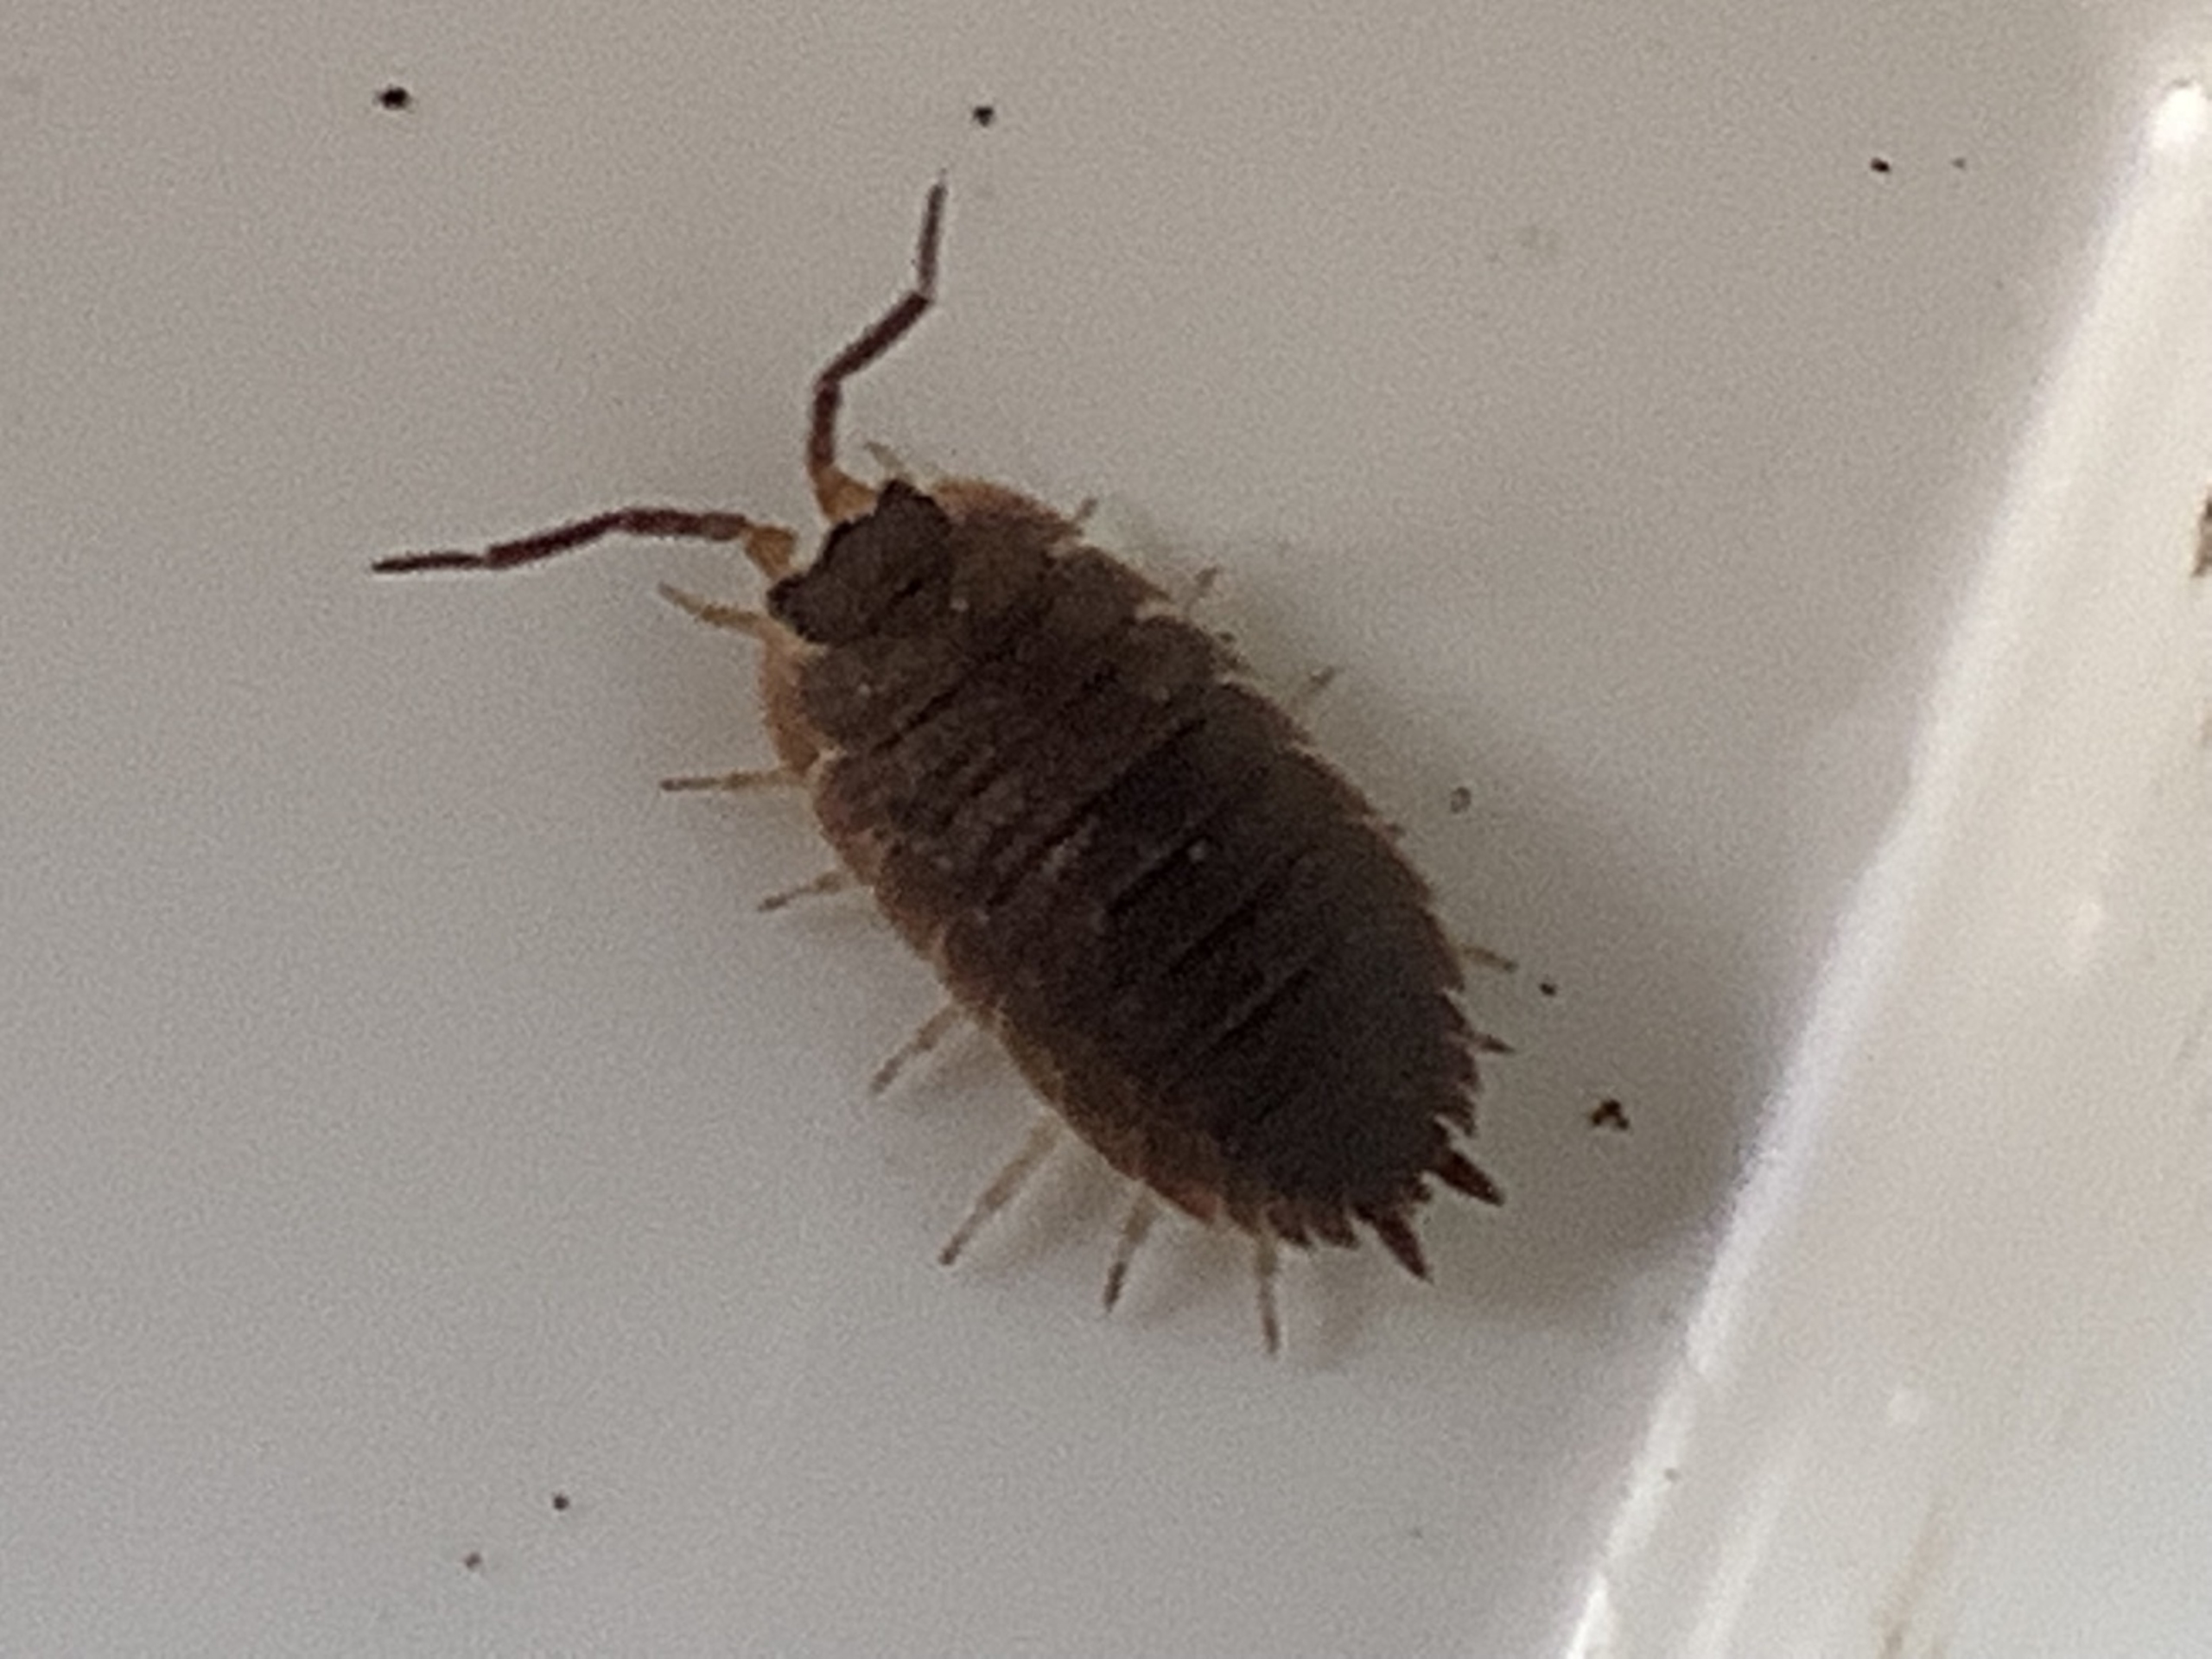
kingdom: Animalia
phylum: Arthropoda
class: Malacostraca
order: Isopoda
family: Porcellionidae
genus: Porcellio
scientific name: Porcellio scaber
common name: Grå bænkebider
